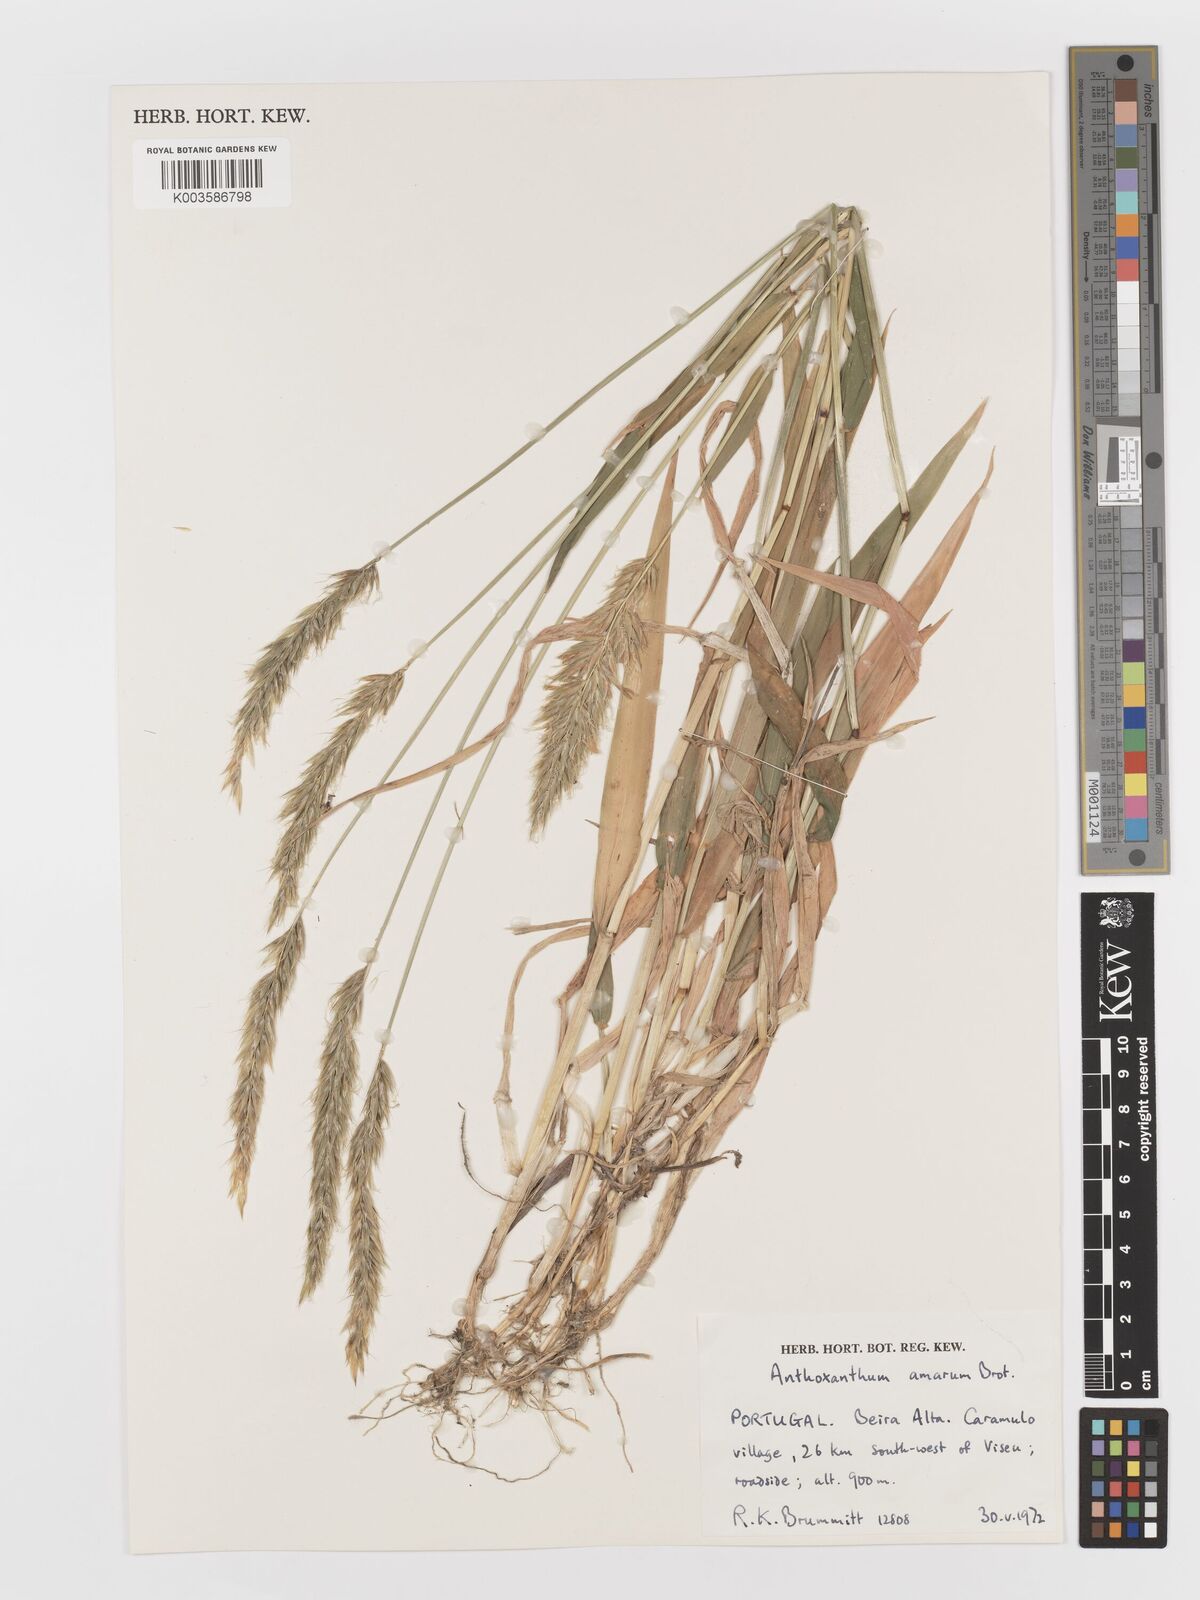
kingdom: Plantae
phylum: Tracheophyta
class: Liliopsida
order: Poales
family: Poaceae
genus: Anthoxanthum
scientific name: Anthoxanthum amarum
